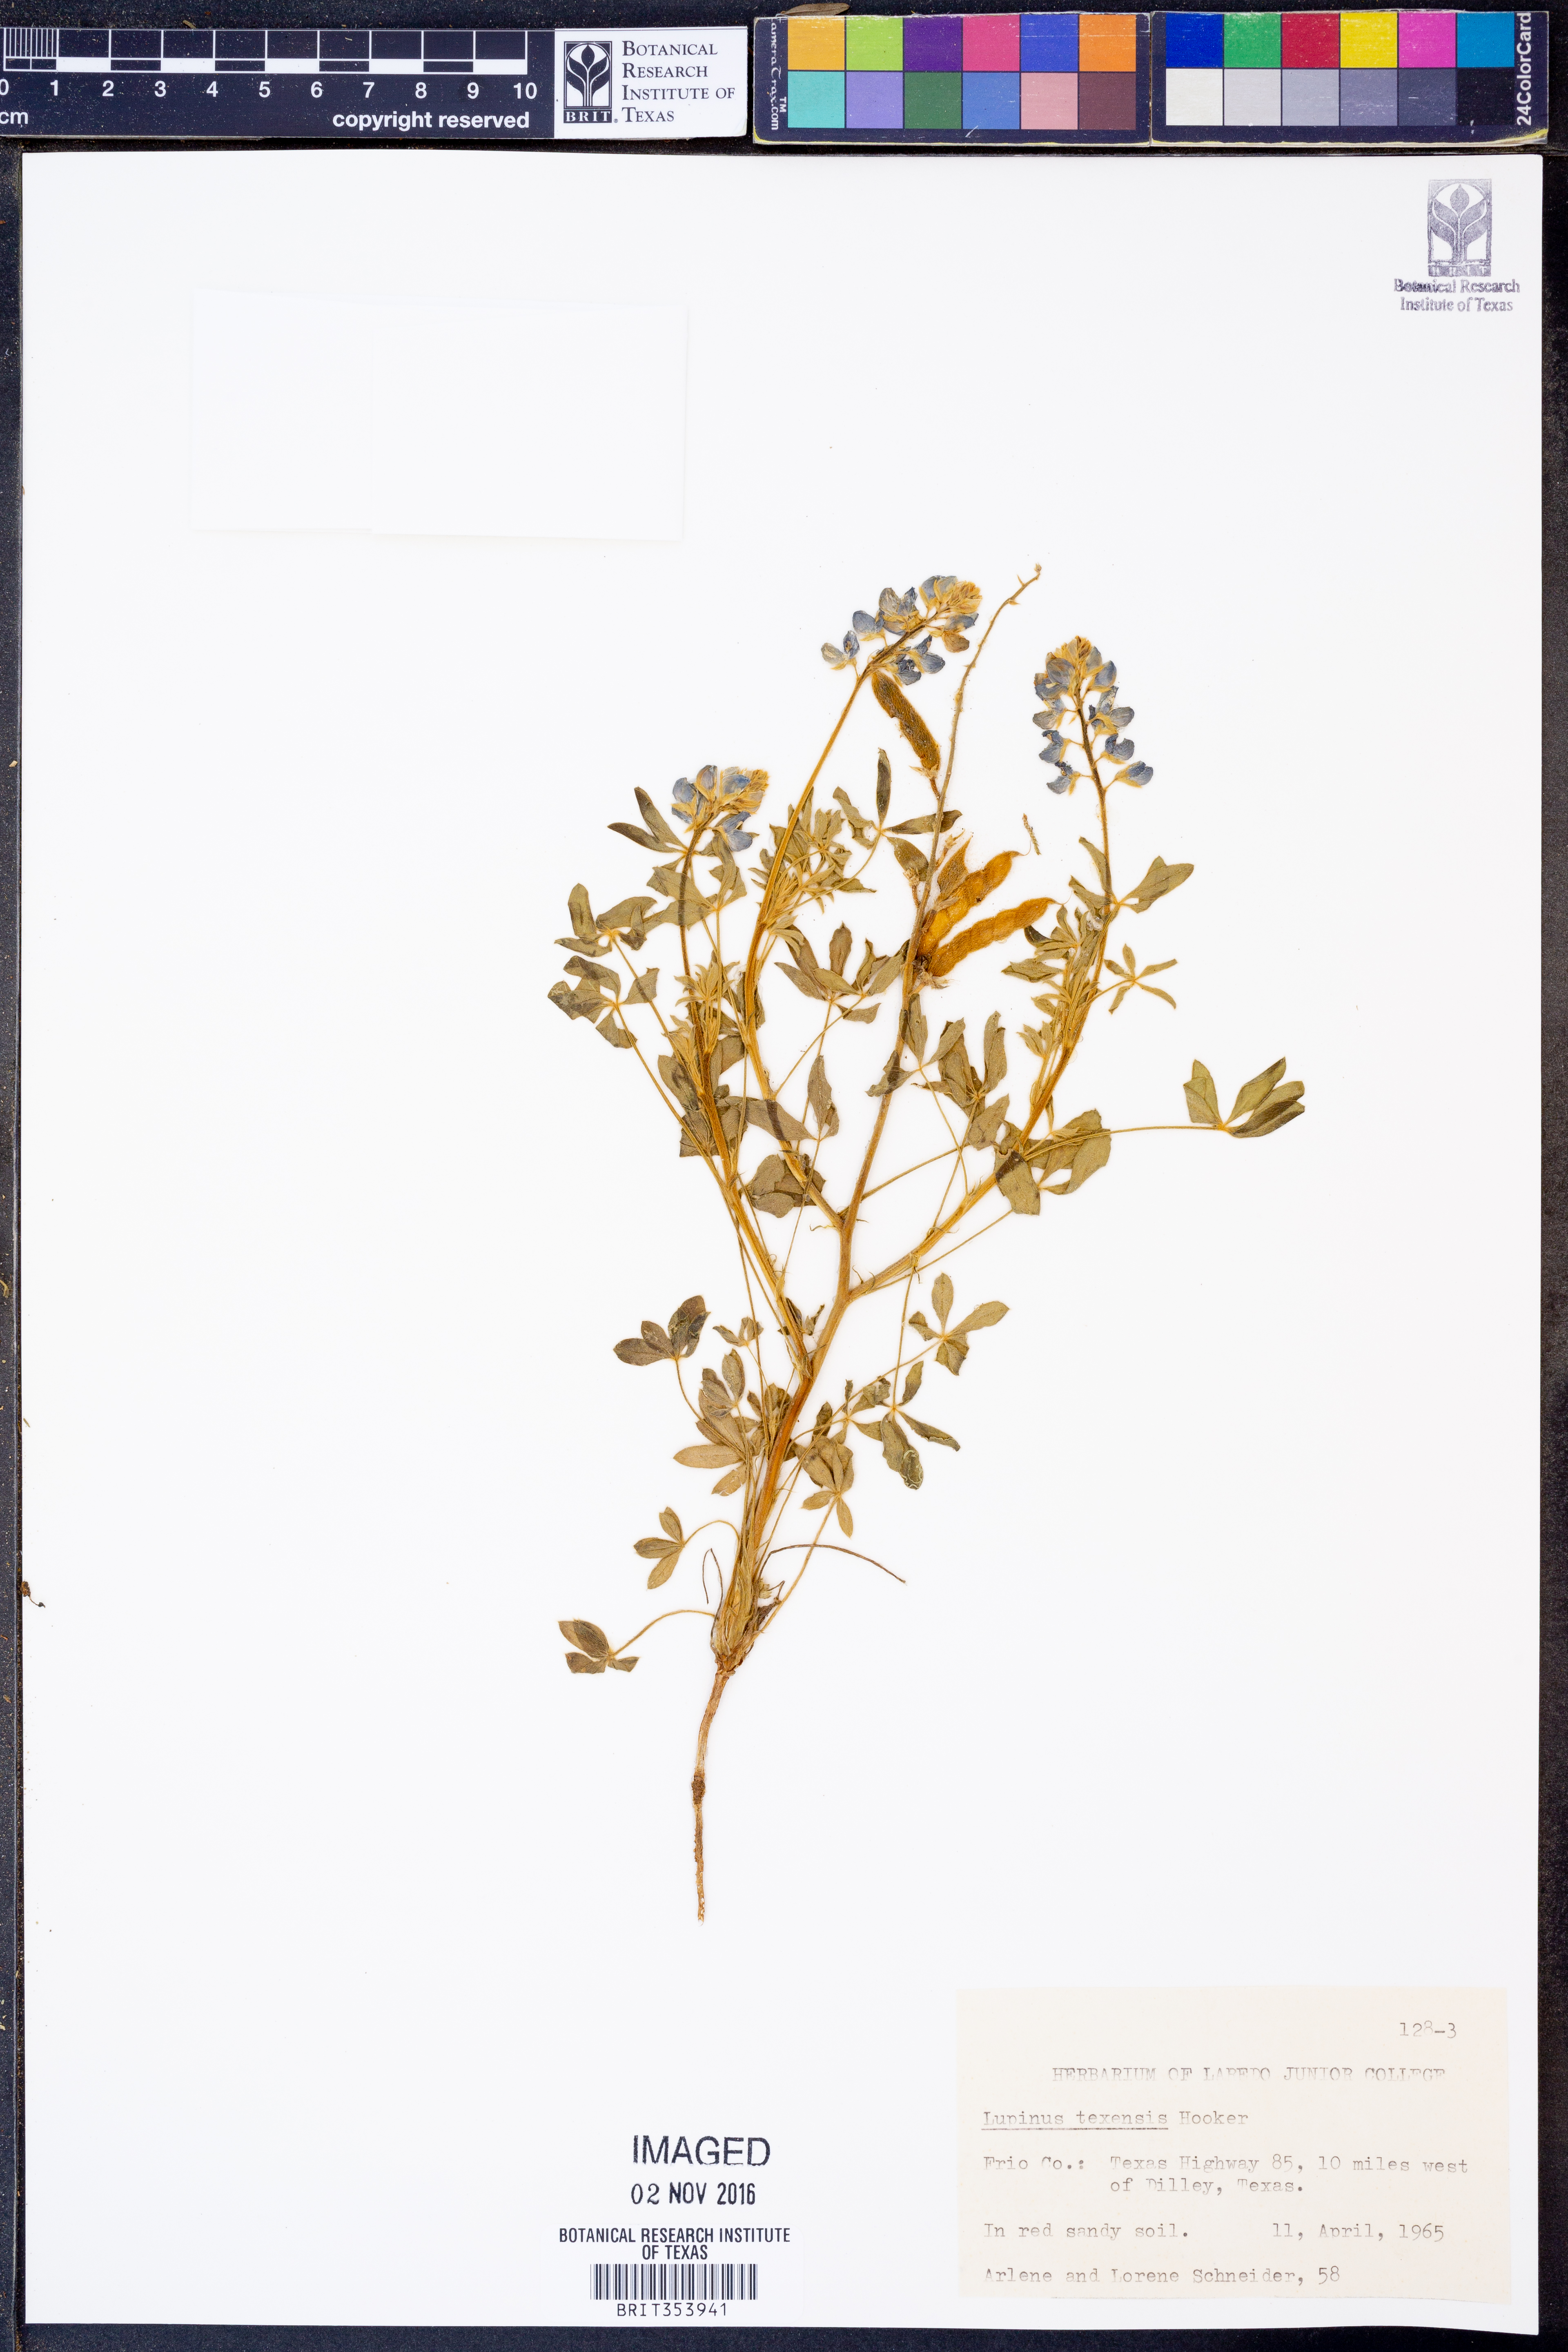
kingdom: Plantae
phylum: Tracheophyta
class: Magnoliopsida
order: Fabales
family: Fabaceae
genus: Lupinus
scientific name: Lupinus texensis
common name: Texas bluebonnet
